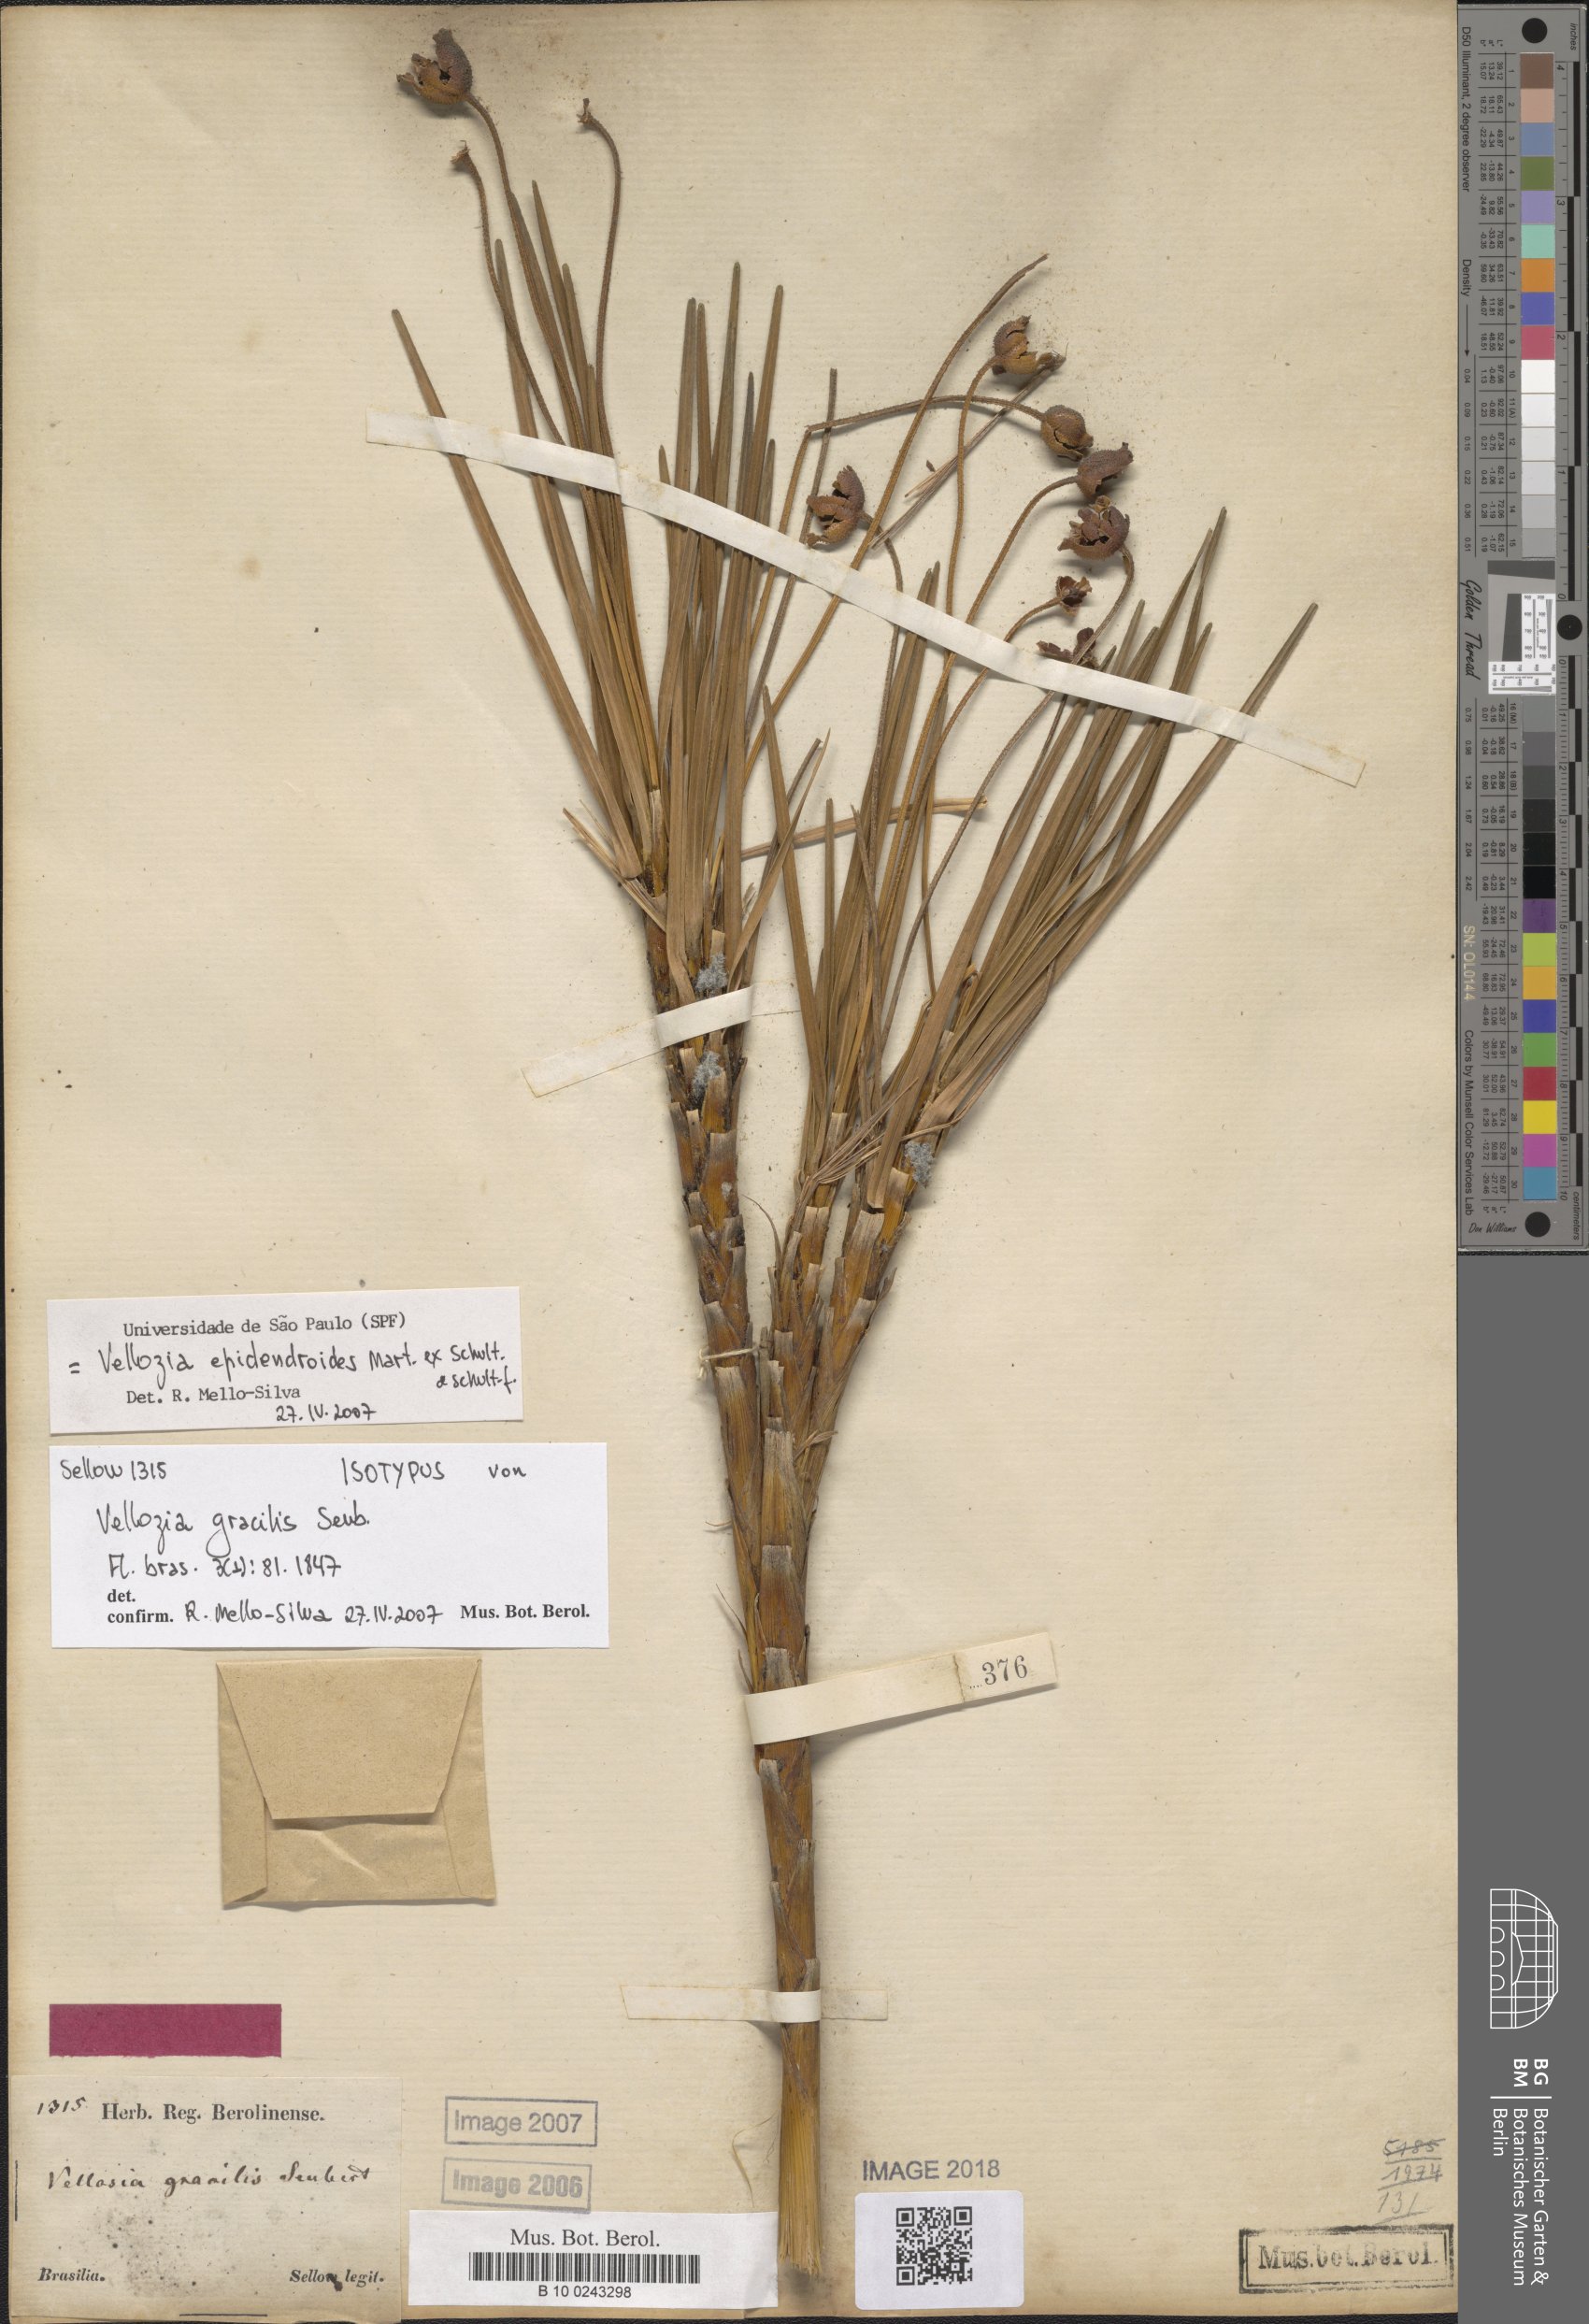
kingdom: Plantae
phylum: Tracheophyta
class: Liliopsida
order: Pandanales
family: Velloziaceae
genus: Vellozia
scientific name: Vellozia epidendroides
